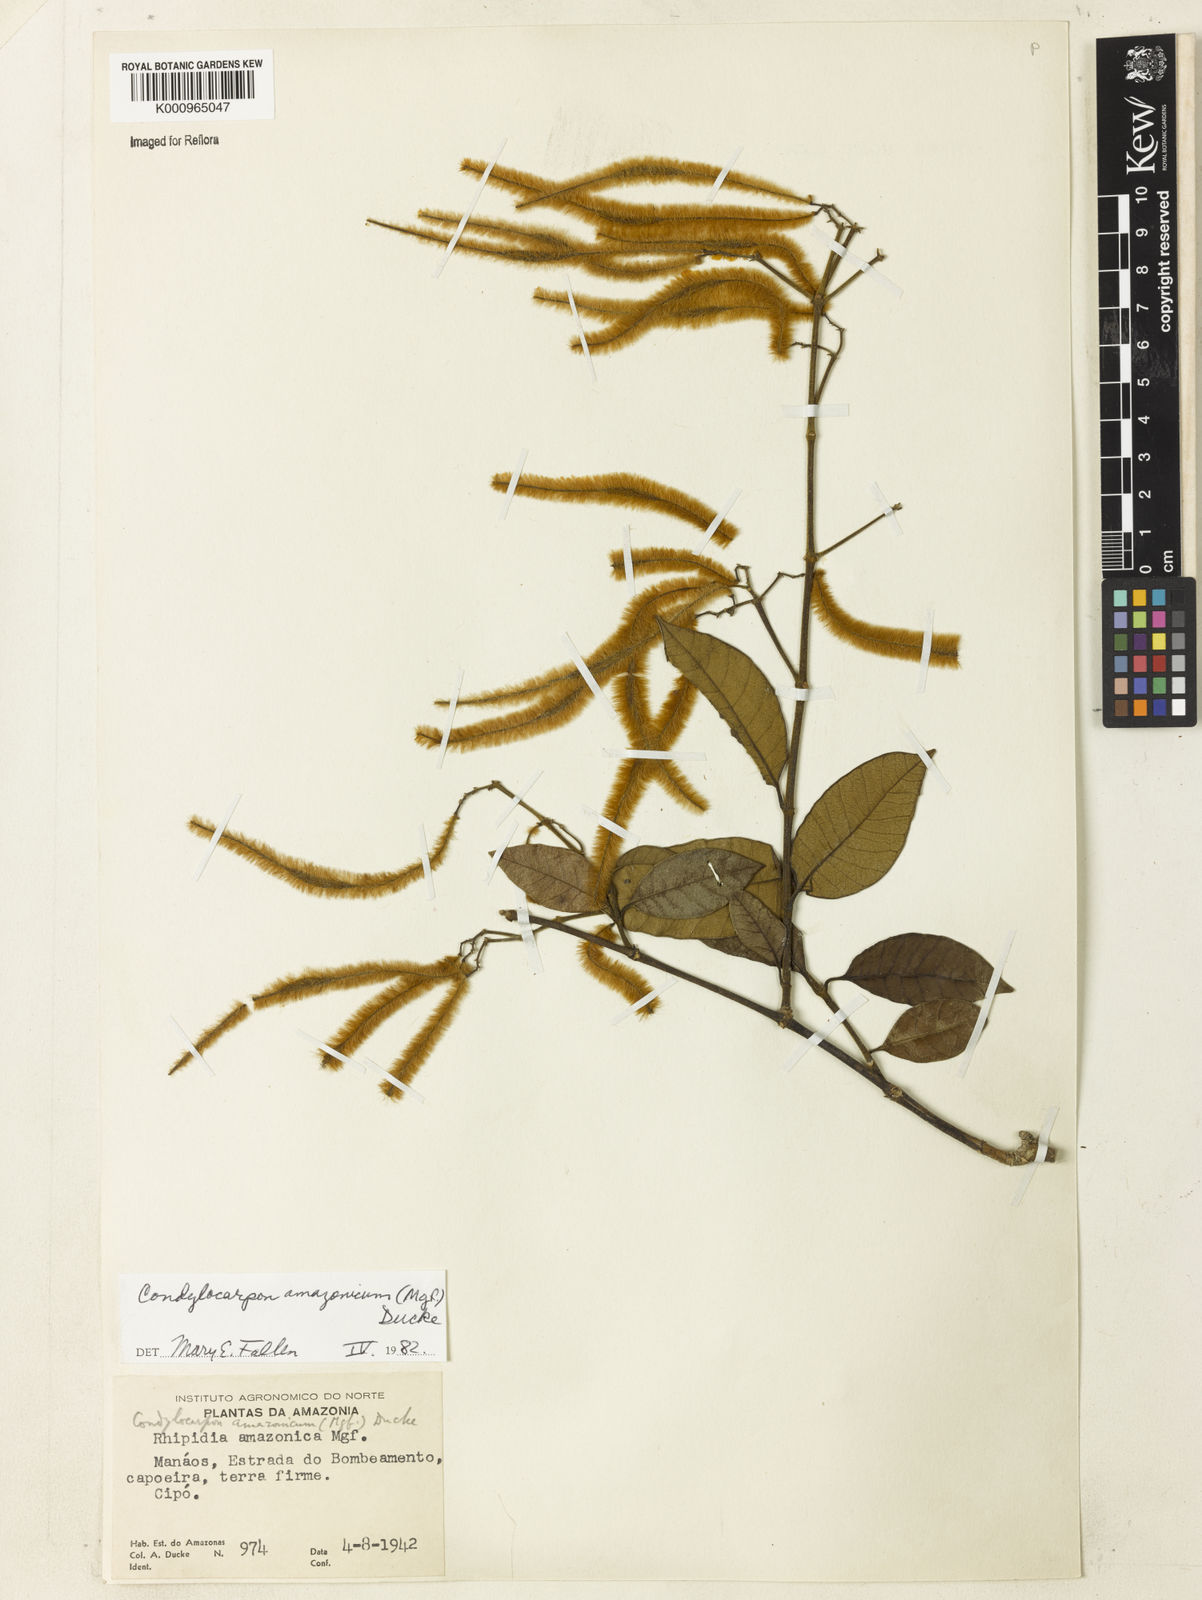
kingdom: Plantae
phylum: Tracheophyta
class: Magnoliopsida
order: Gentianales
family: Apocynaceae
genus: Condylocarpon
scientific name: Condylocarpon amazonicum
